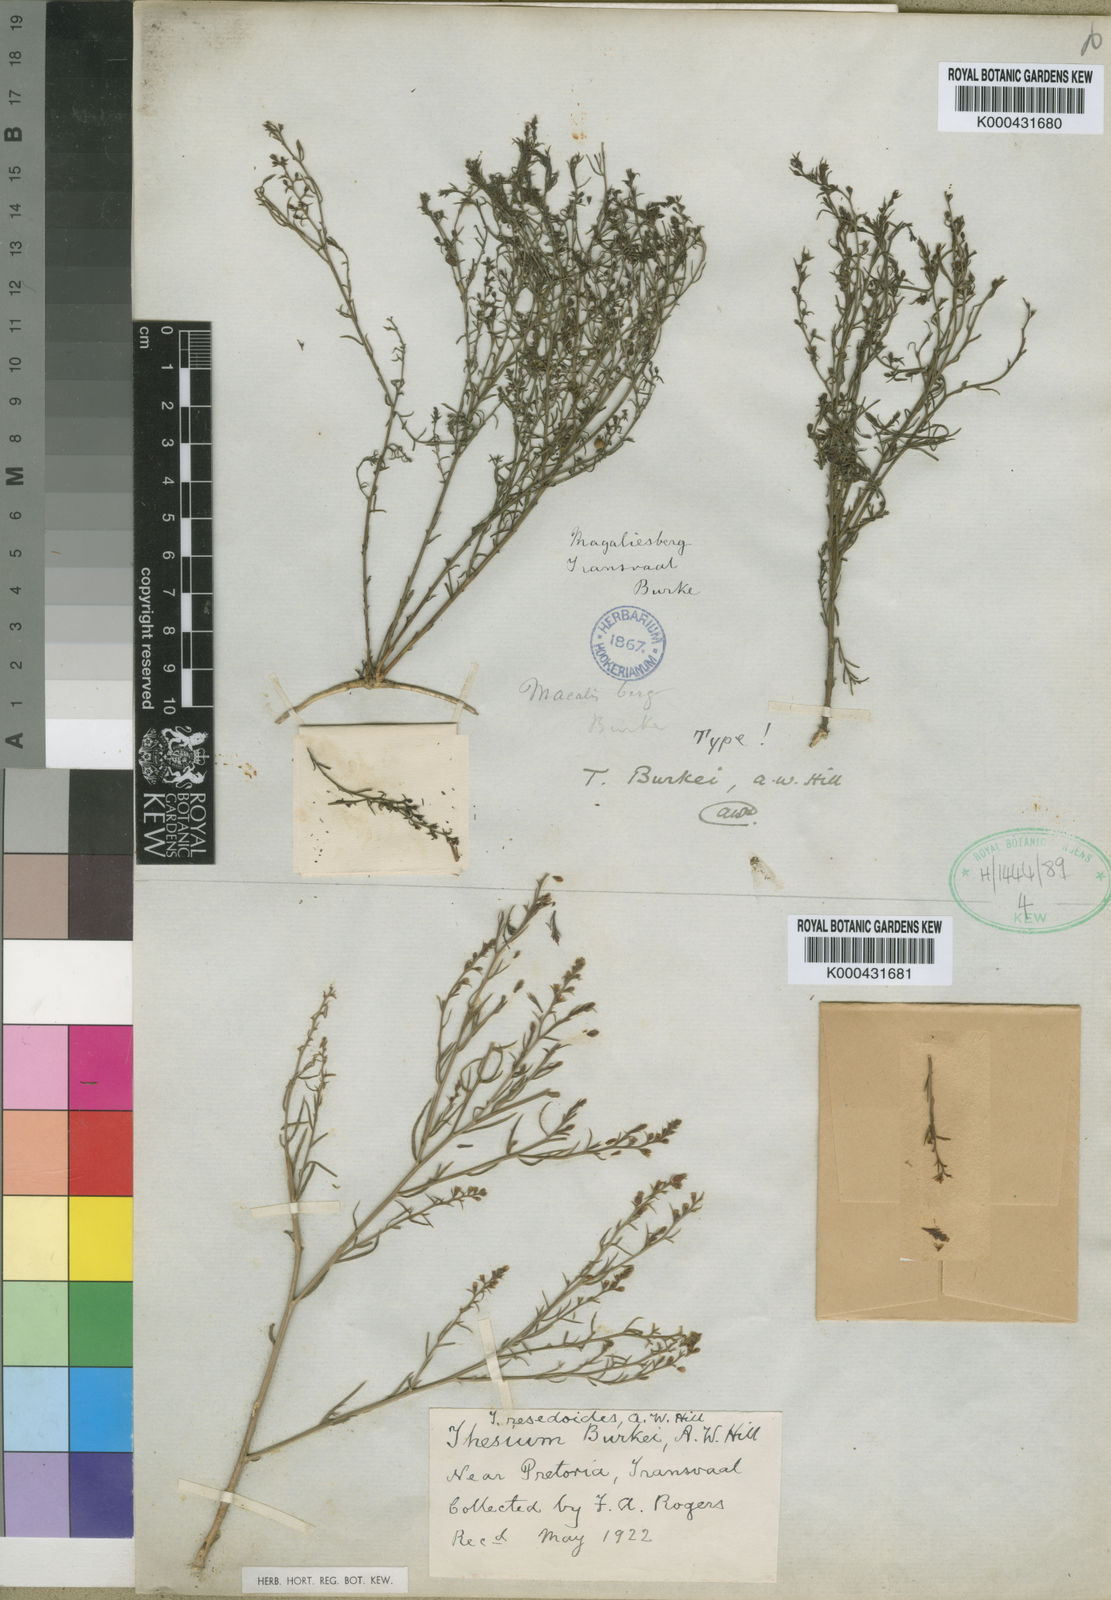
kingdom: Plantae
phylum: Tracheophyta
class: Magnoliopsida
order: Santalales
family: Thesiaceae
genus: Thesium
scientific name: Thesium resedoides
